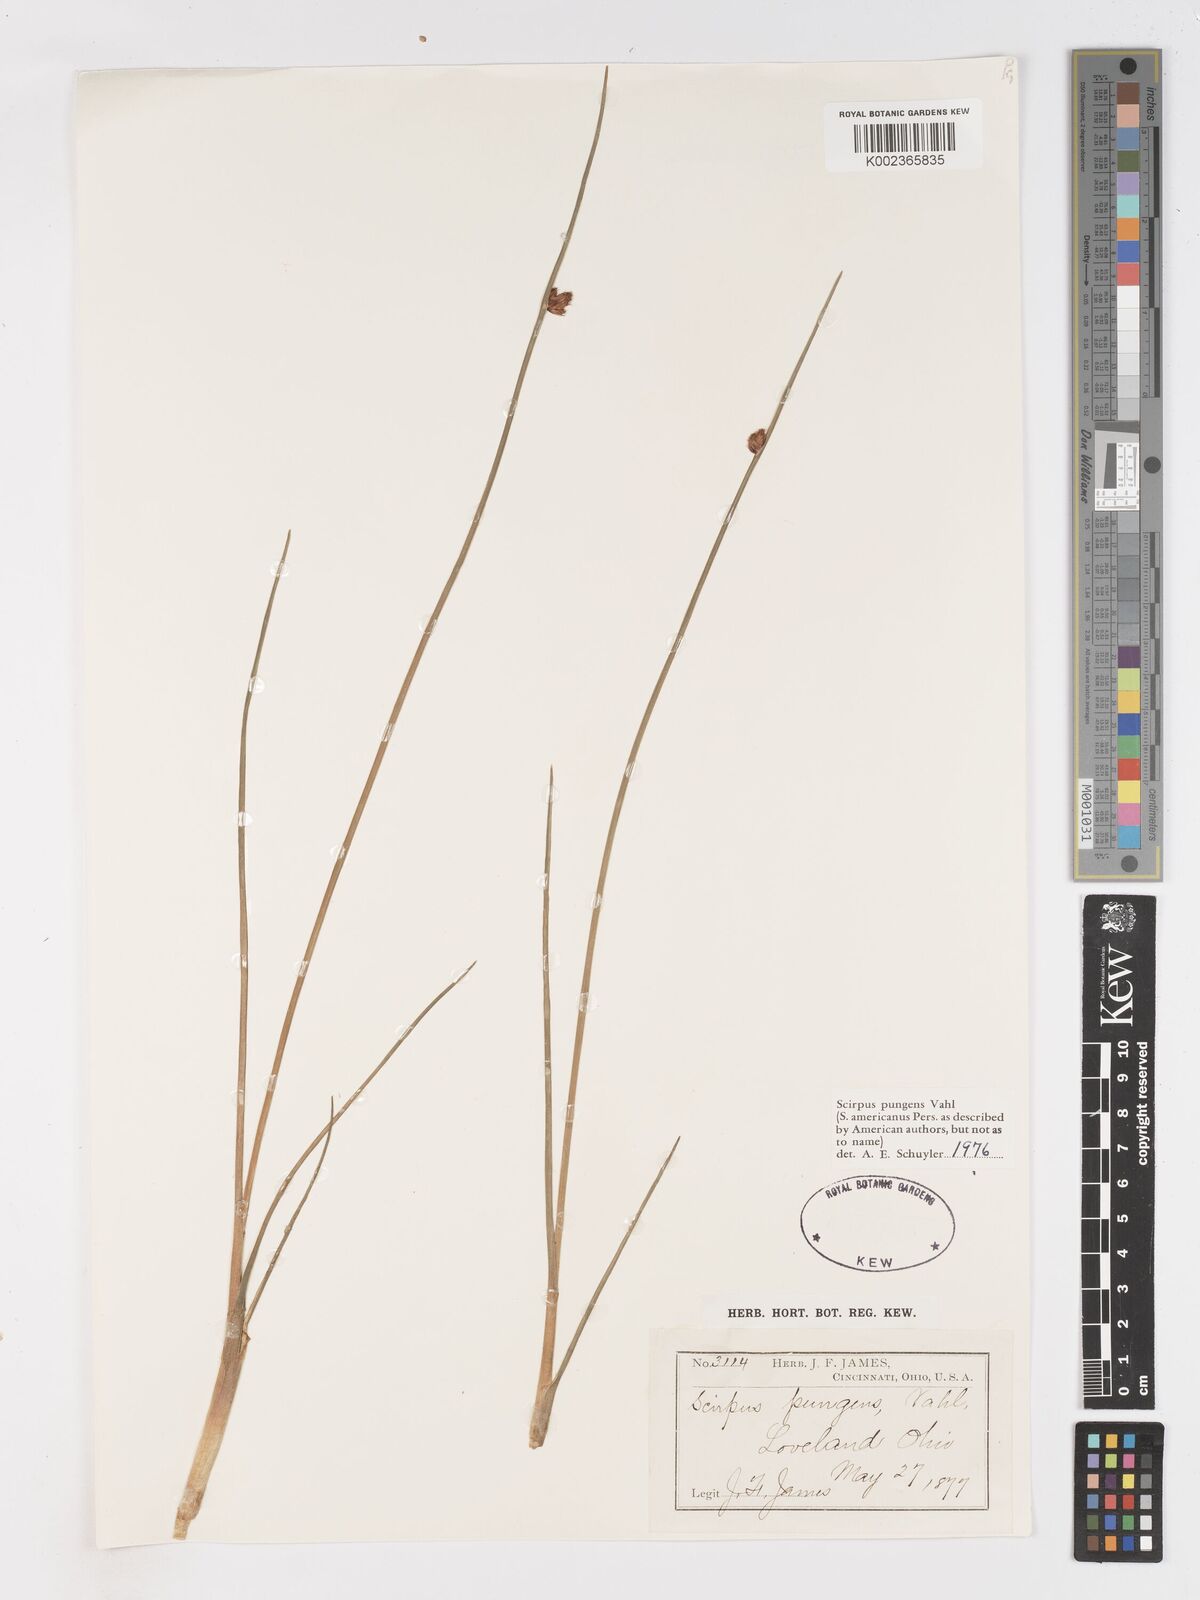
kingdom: Plantae
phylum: Tracheophyta
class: Liliopsida
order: Poales
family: Cyperaceae
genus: Schoenoplectus
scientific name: Schoenoplectus pungens
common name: Sharp club-rush
